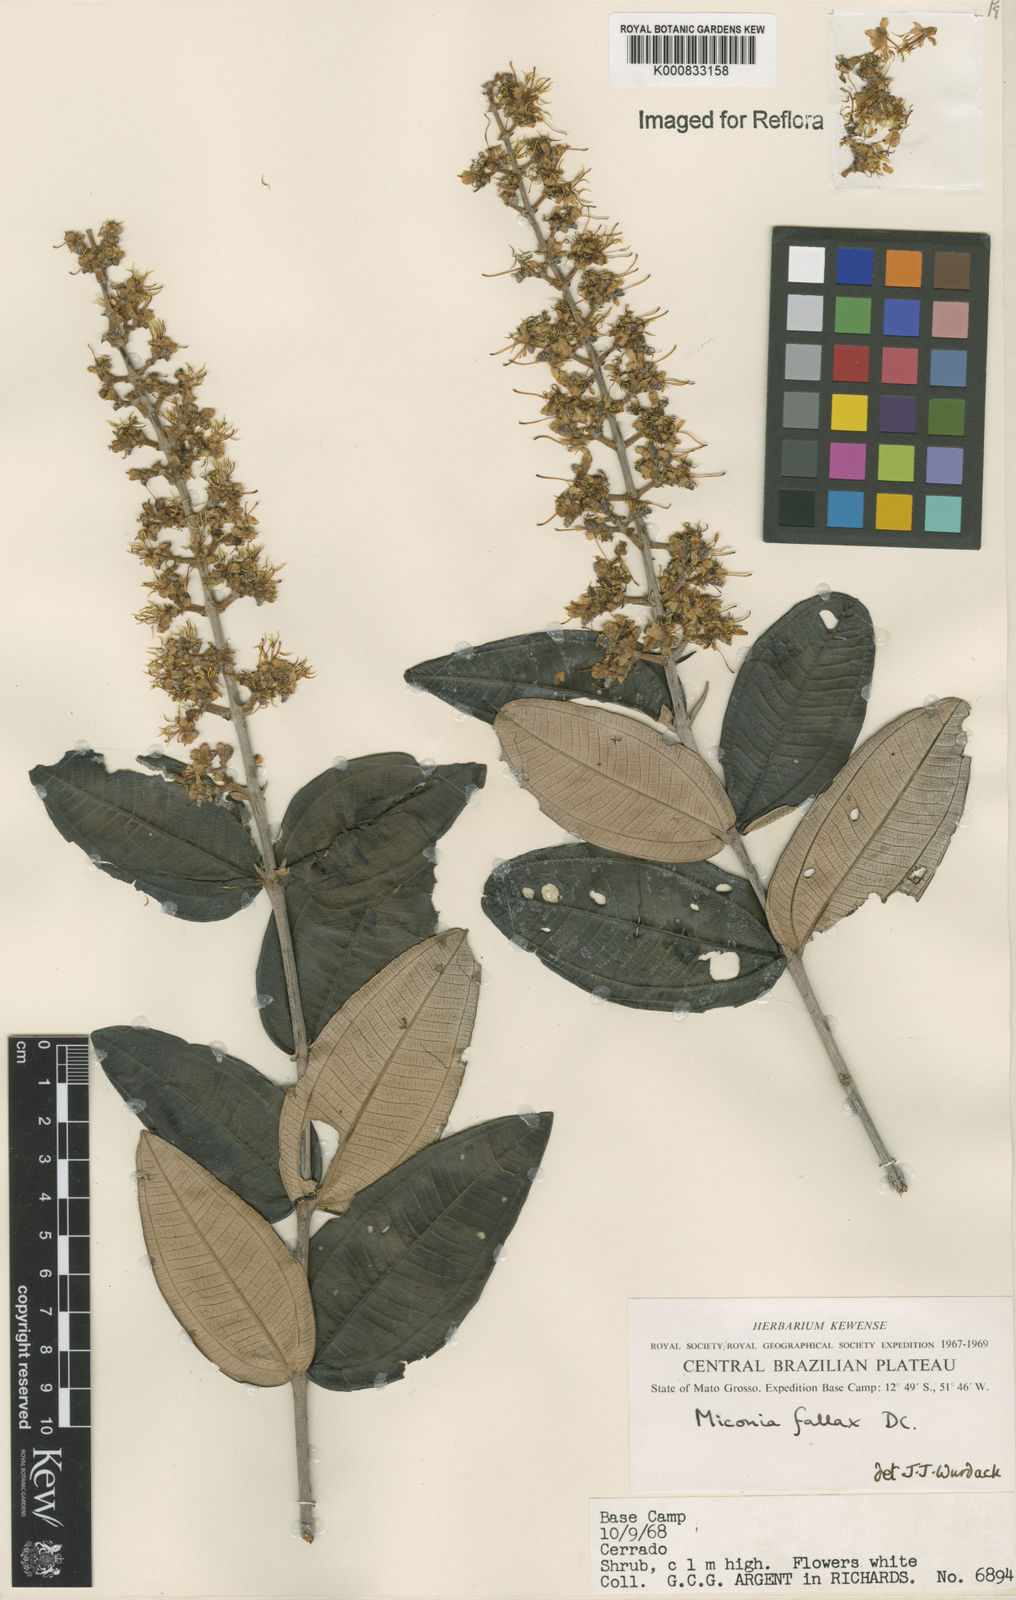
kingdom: Plantae
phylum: Tracheophyta
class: Magnoliopsida
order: Myrtales
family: Melastomataceae
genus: Miconia
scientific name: Miconia fallax
